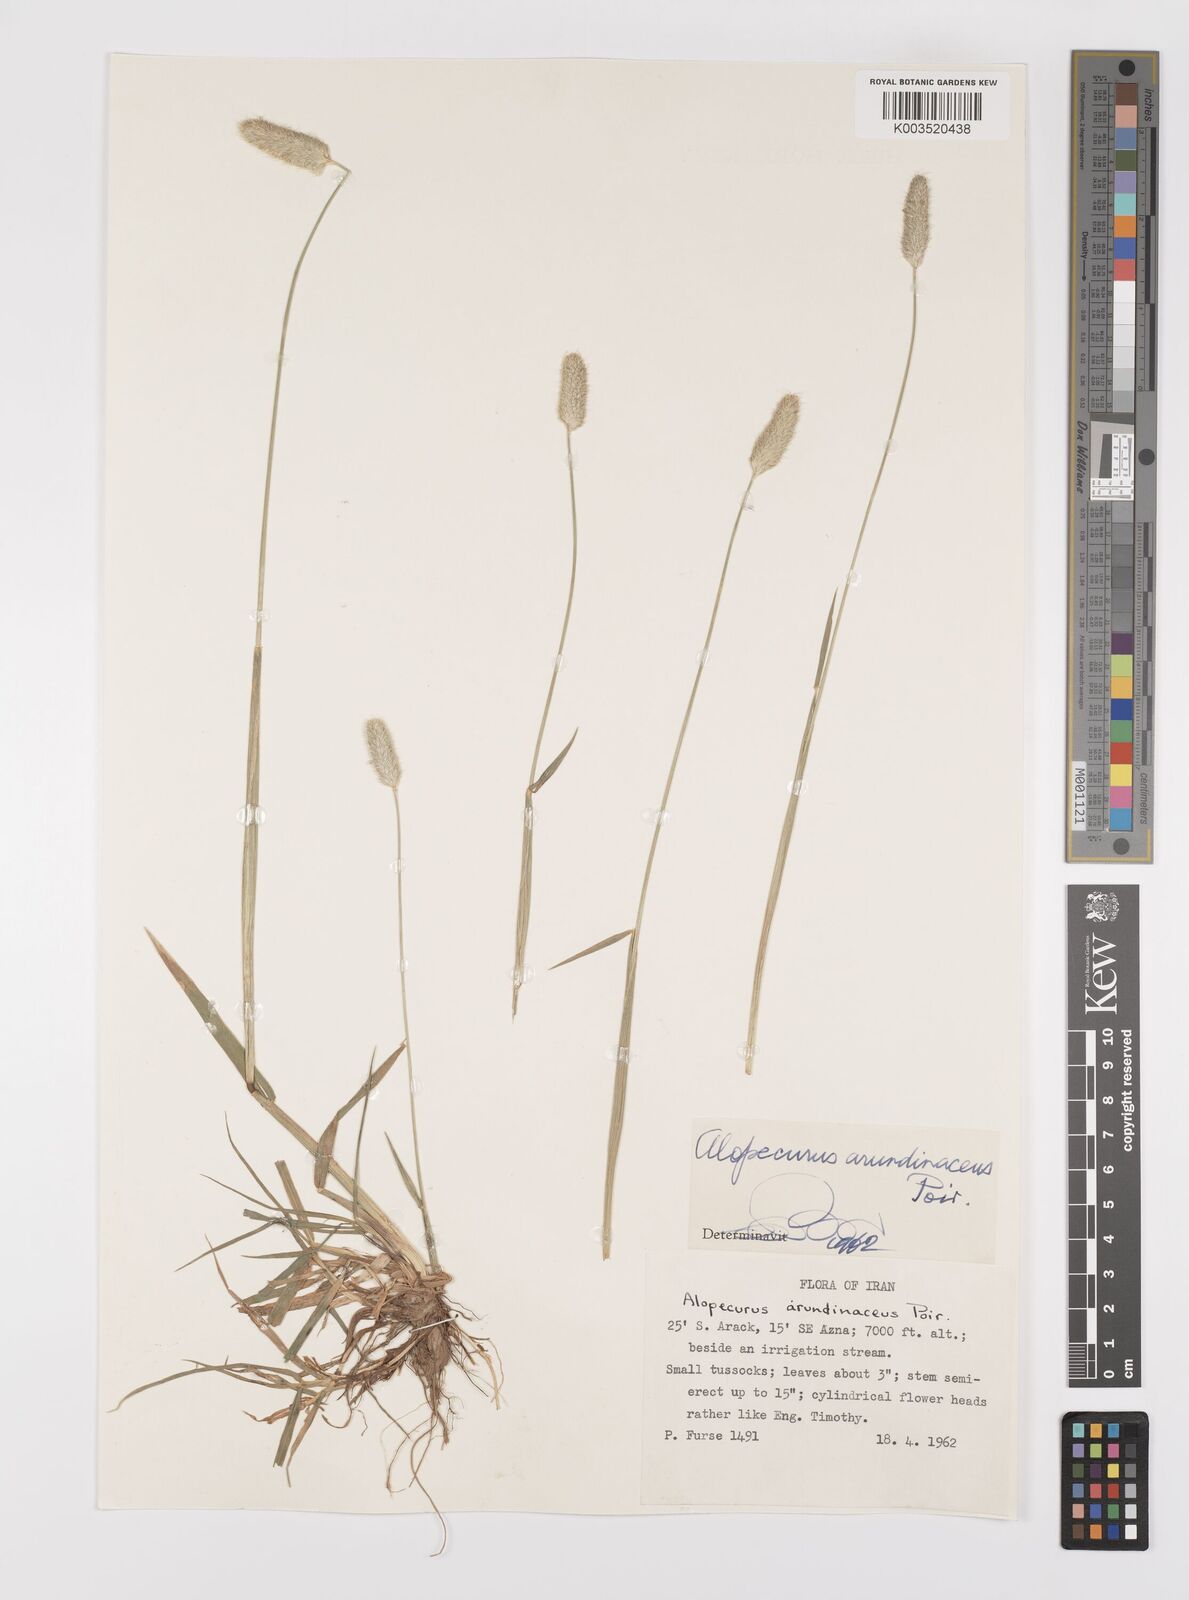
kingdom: Plantae
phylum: Tracheophyta
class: Liliopsida
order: Poales
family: Poaceae
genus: Alopecurus
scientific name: Alopecurus arundinaceus
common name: Creeping meadow foxtail
